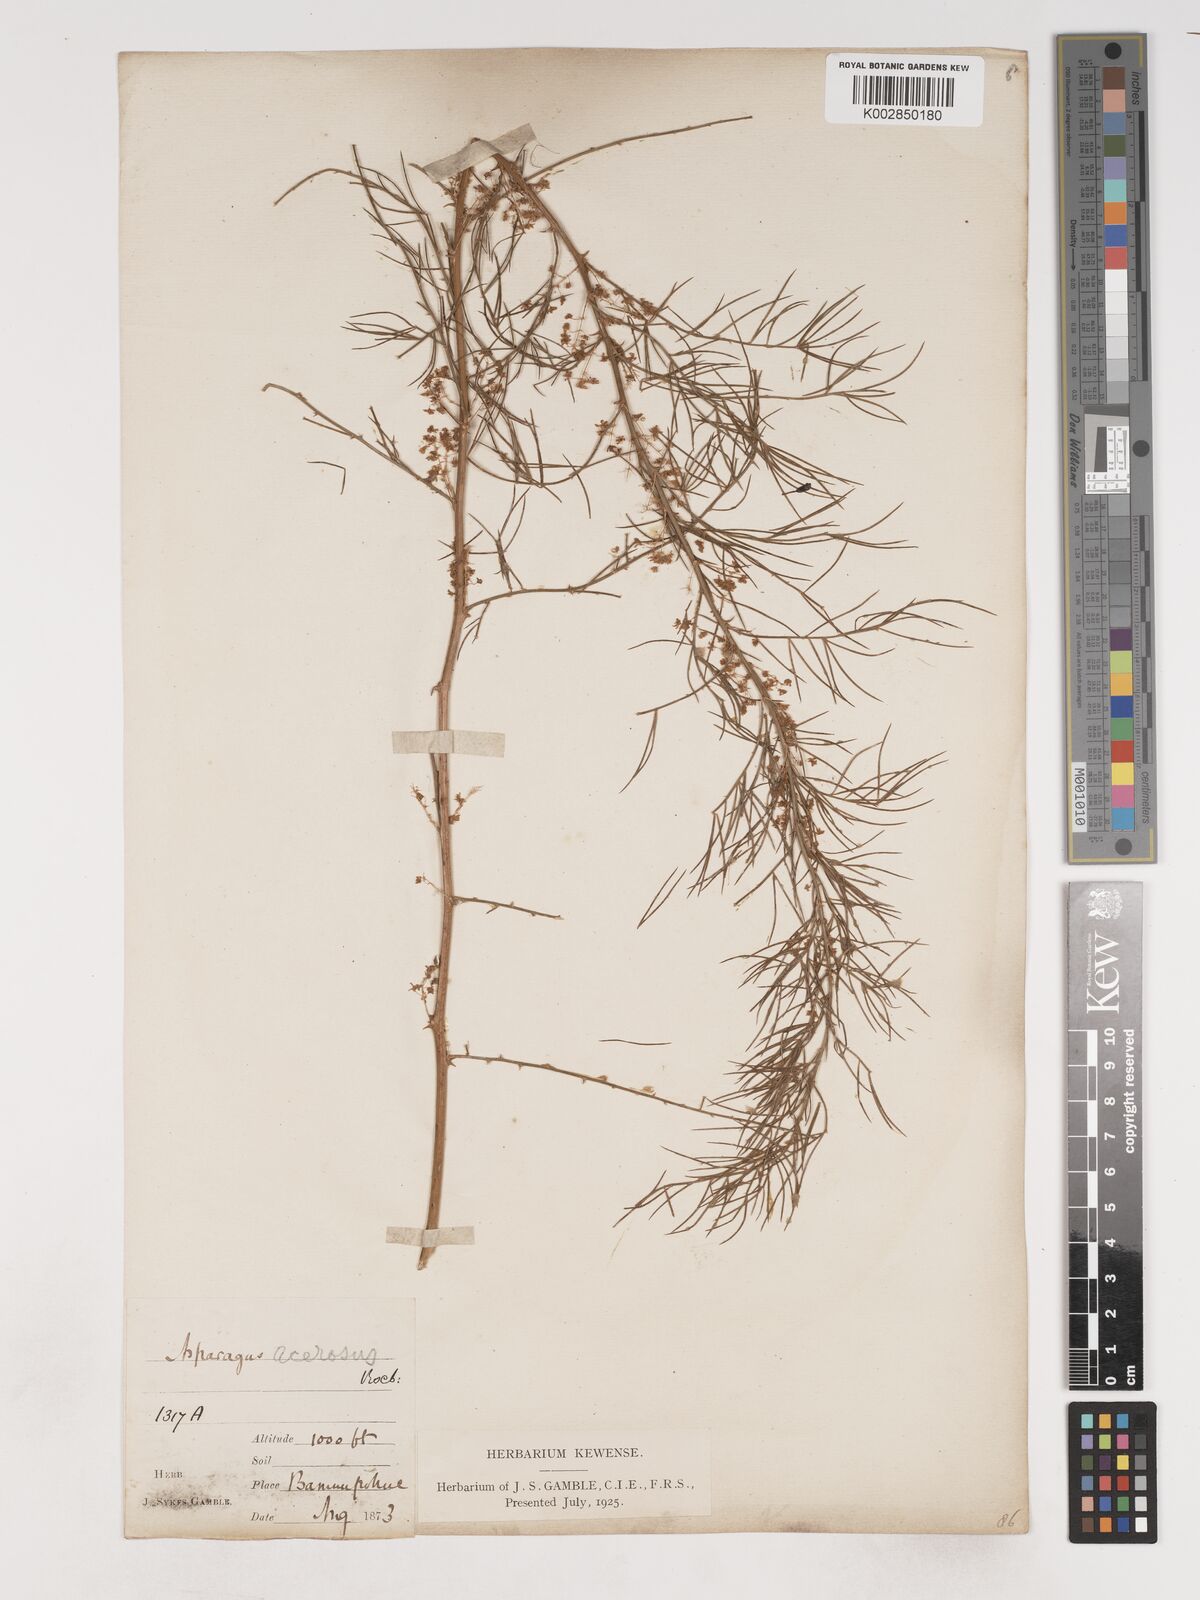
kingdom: Plantae
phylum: Tracheophyta
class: Liliopsida
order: Asparagales
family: Asparagaceae
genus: Asparagus
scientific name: Asparagus racemosus
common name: Asparagus-fern
